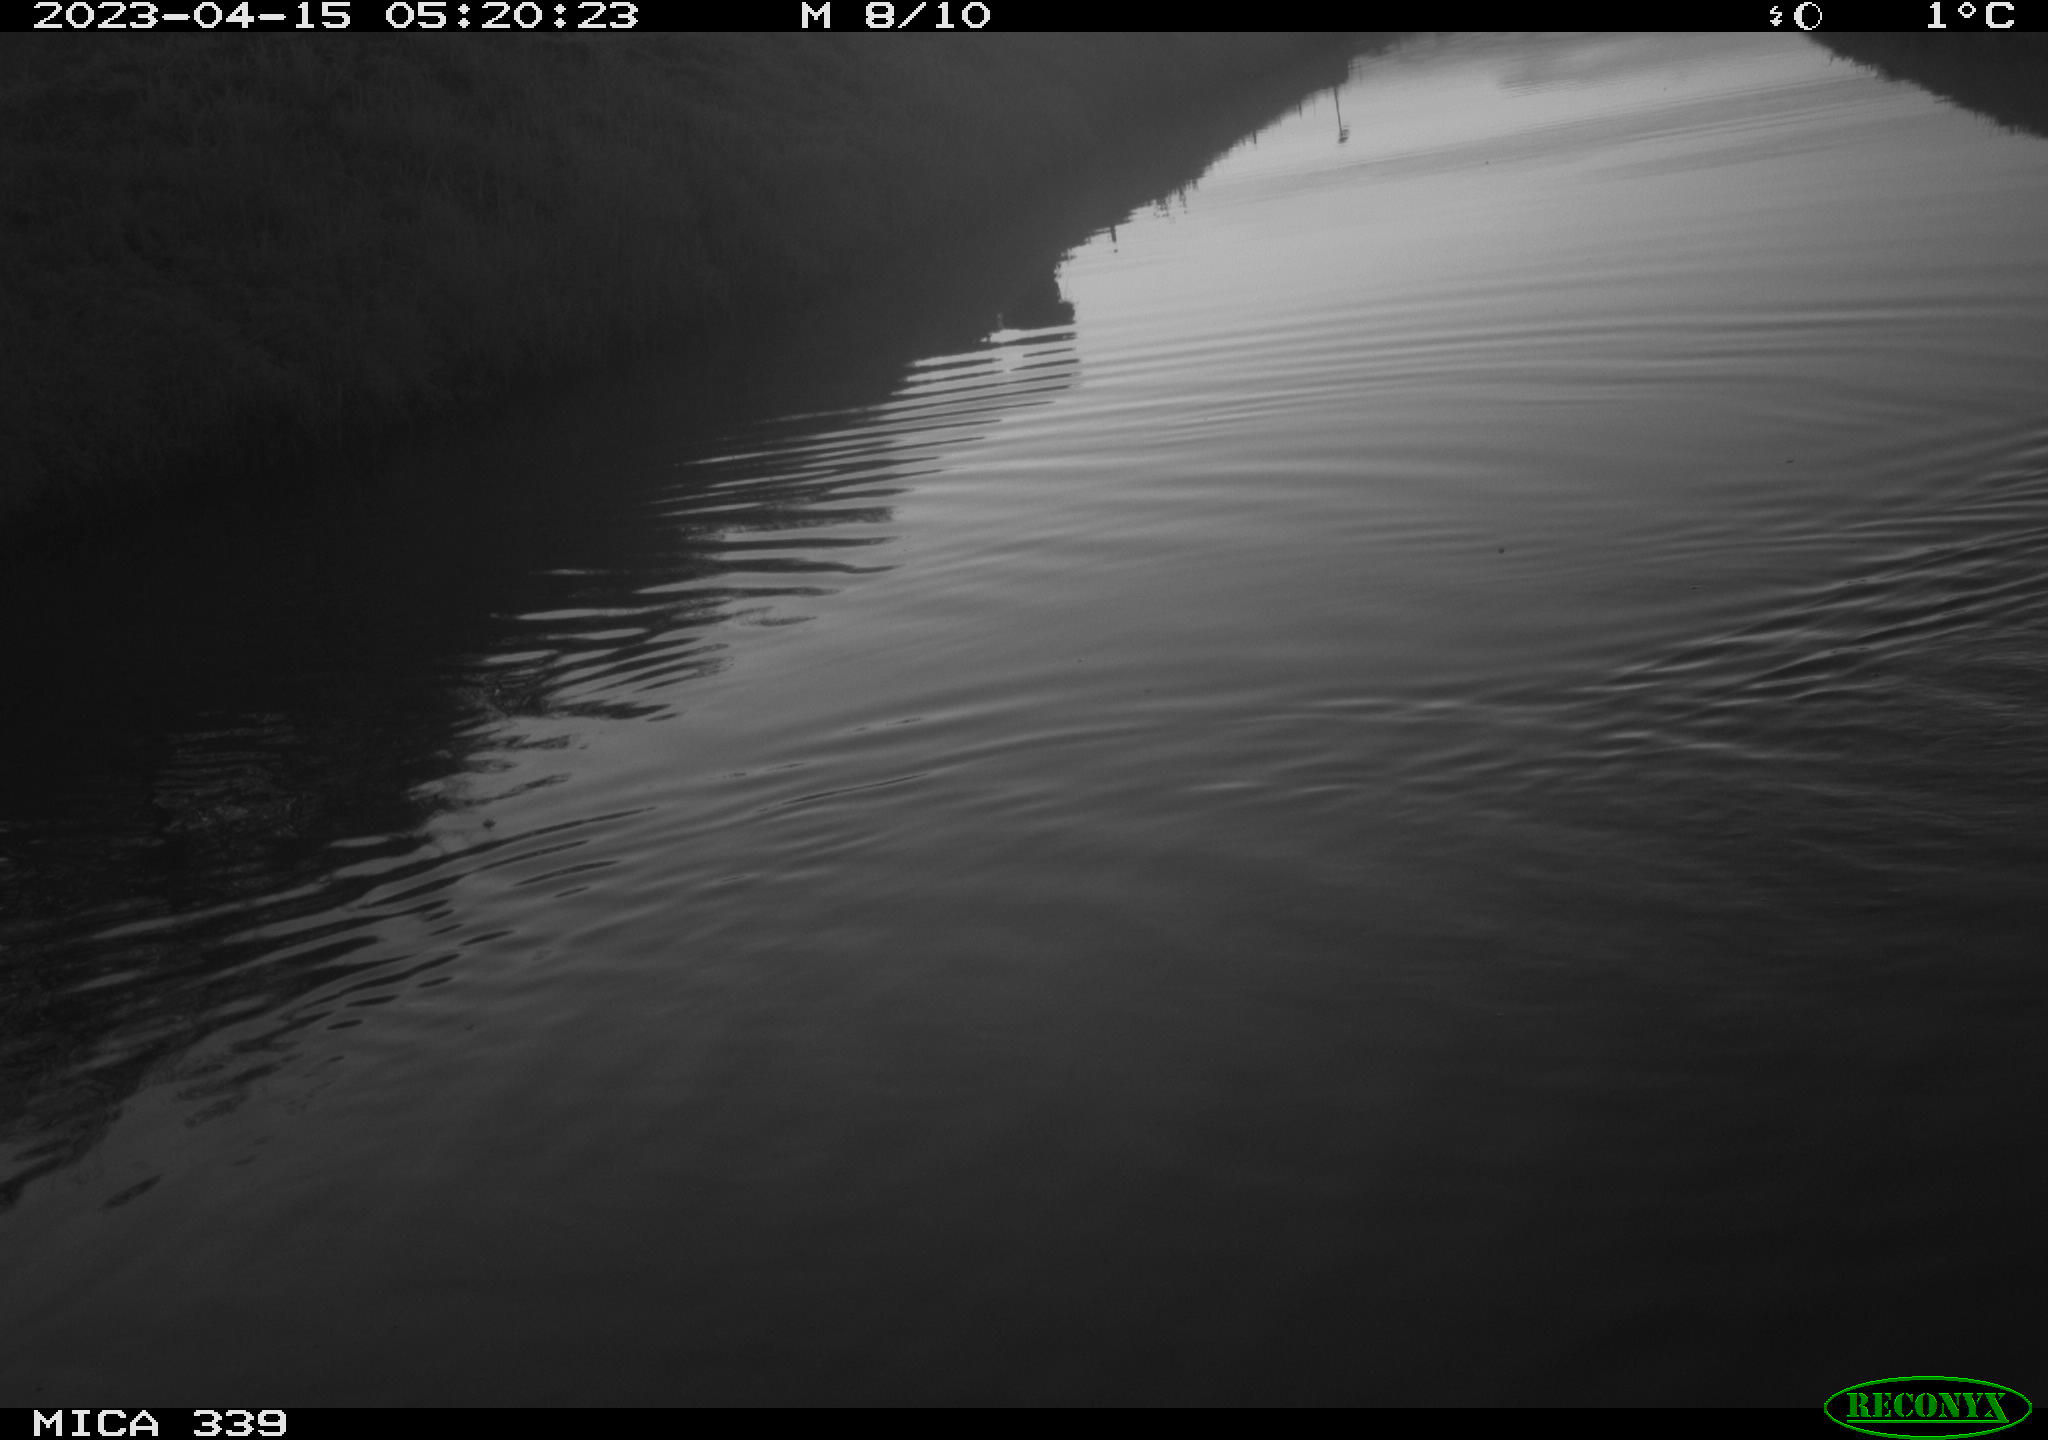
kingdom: Animalia
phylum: Chordata
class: Aves
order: Anseriformes
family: Anatidae
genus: Anas
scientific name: Anas
